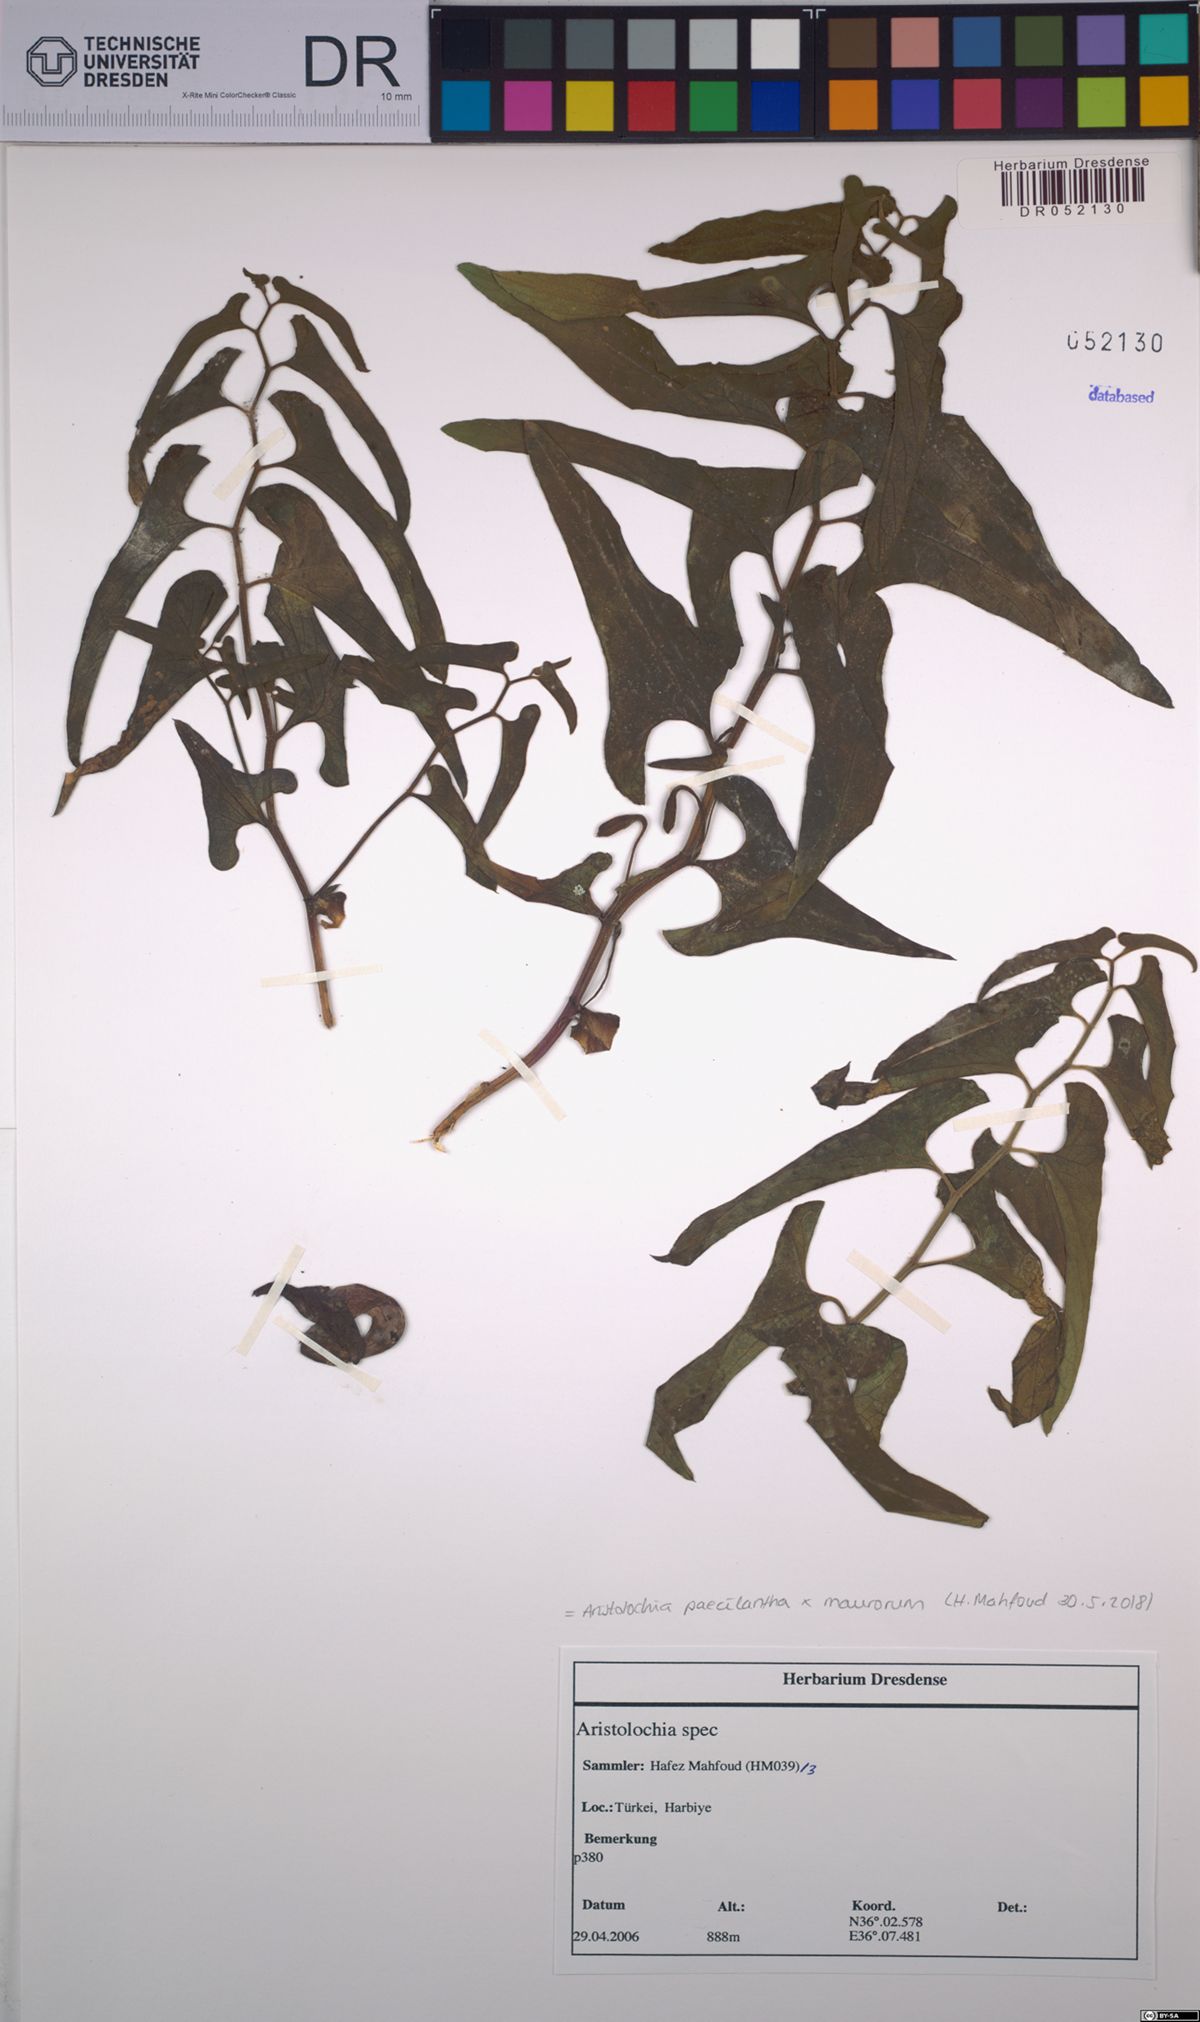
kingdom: Plantae
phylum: Tracheophyta
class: Magnoliopsida
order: Piperales
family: Aristolochiaceae
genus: Aristolochia
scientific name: Aristolochia paecilantha
